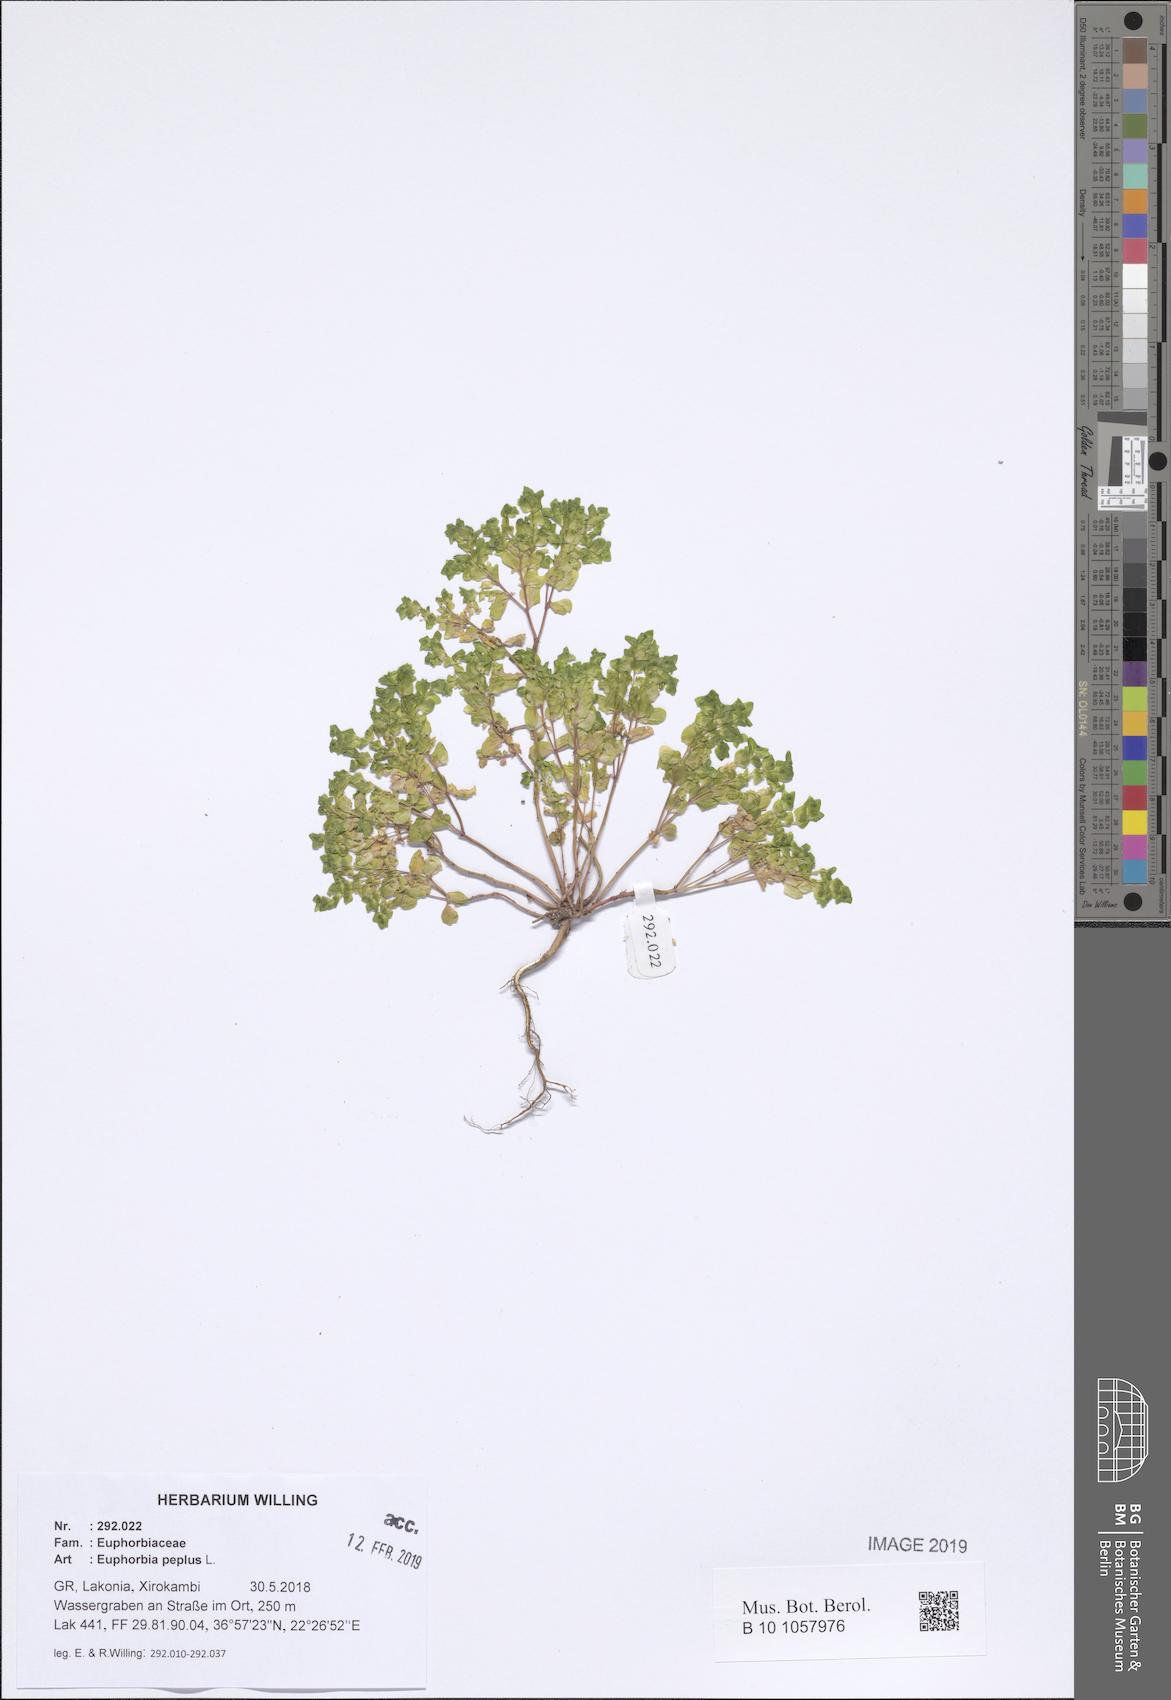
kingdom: Plantae
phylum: Tracheophyta
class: Magnoliopsida
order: Malpighiales
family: Euphorbiaceae
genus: Euphorbia
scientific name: Euphorbia peplus
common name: Petty spurge
